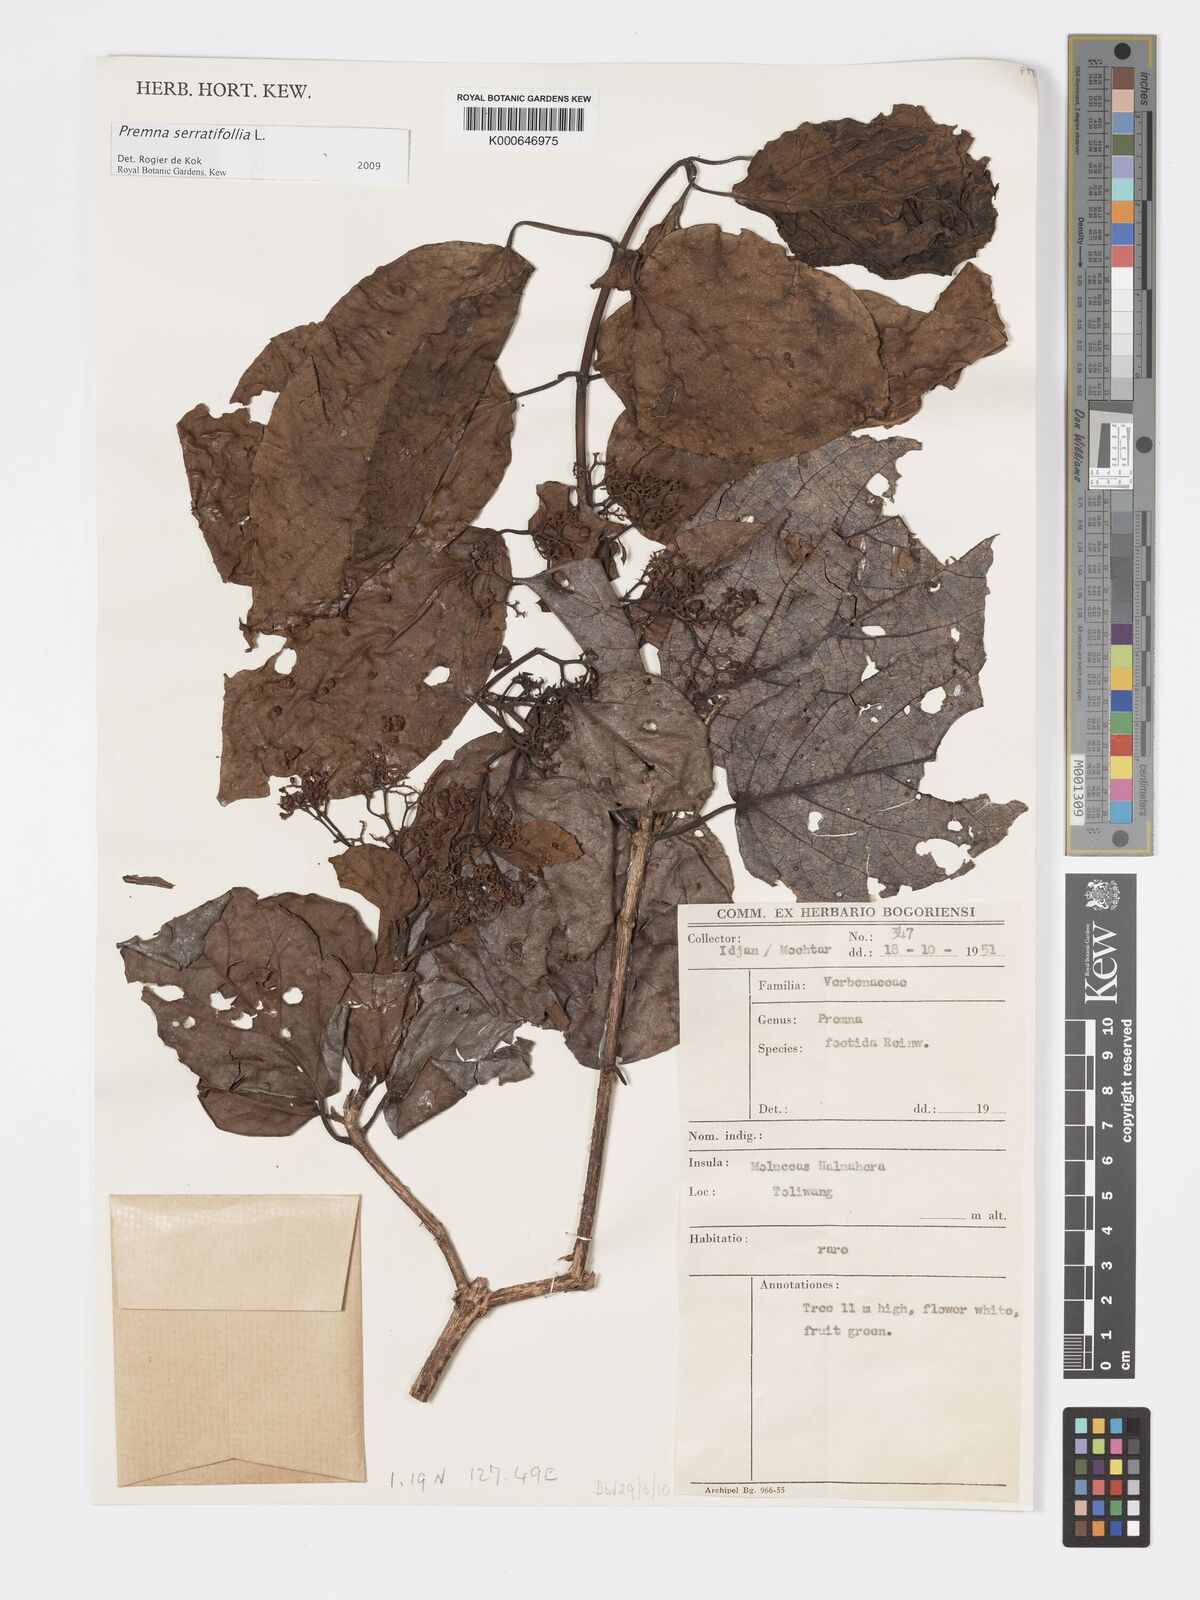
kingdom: Plantae
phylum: Tracheophyta
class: Magnoliopsida
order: Lamiales
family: Lamiaceae
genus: Premna
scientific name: Premna serratifolia
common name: Bastard guelder
